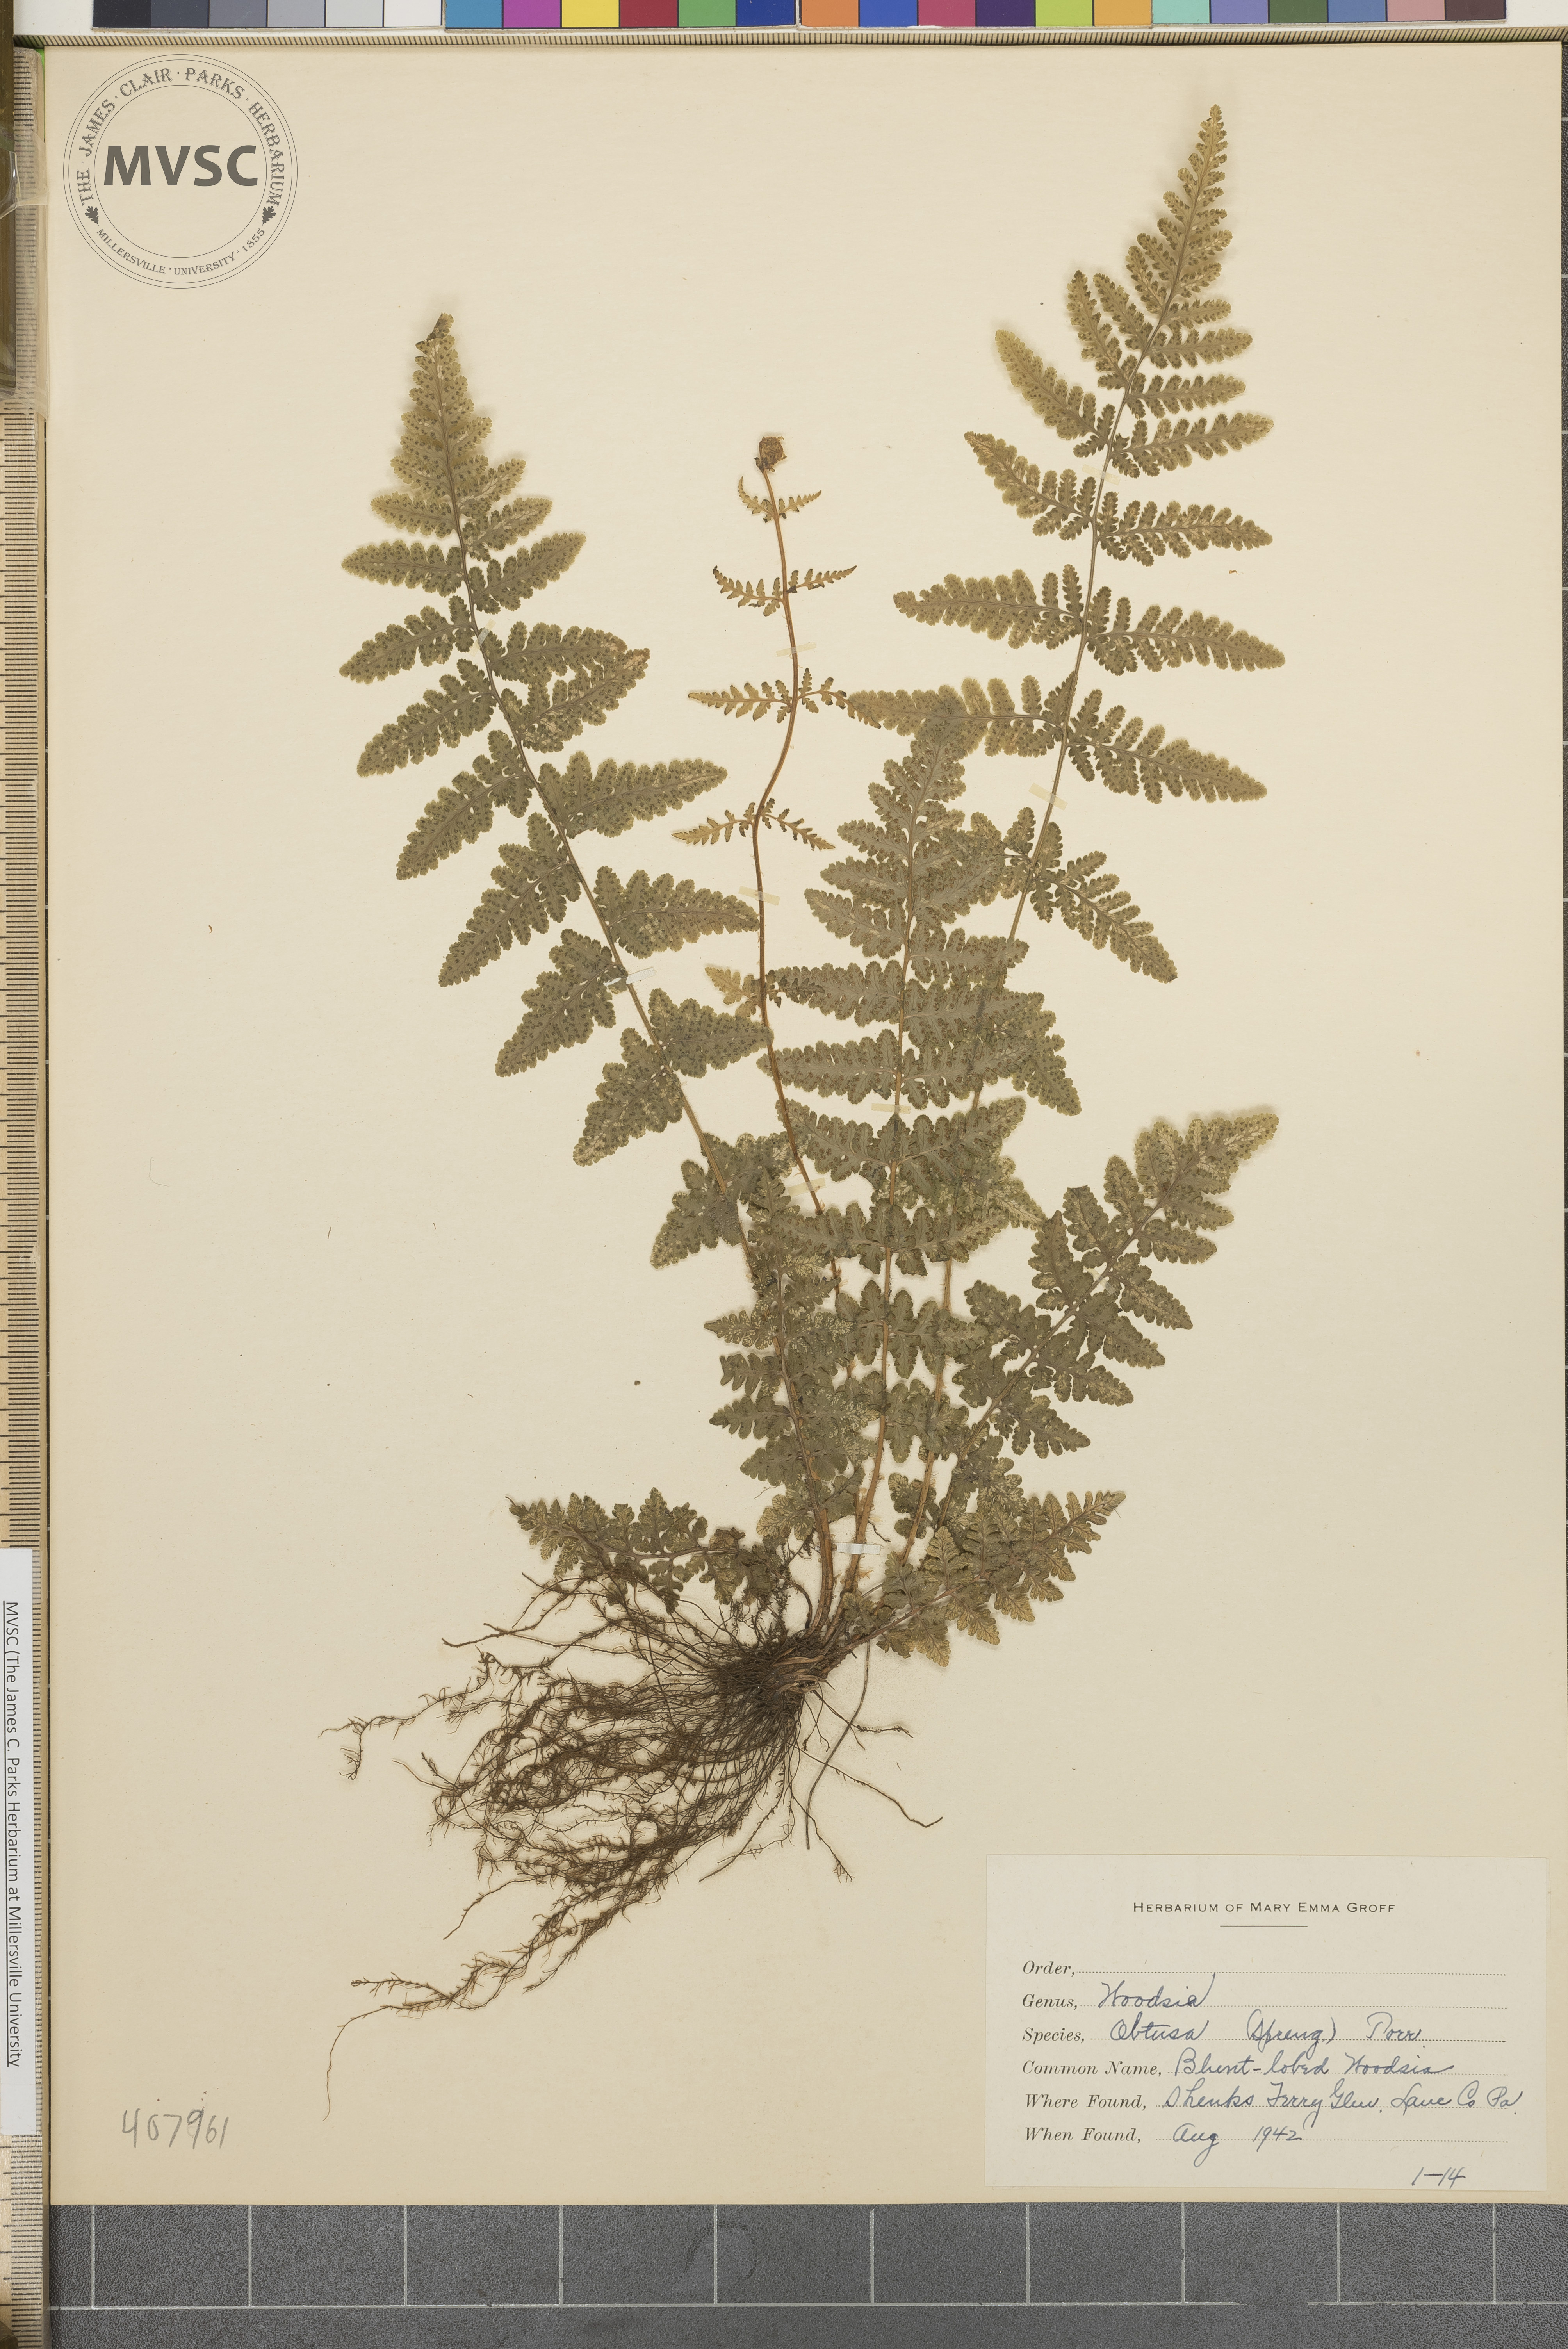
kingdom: Plantae
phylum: Tracheophyta
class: Polypodiopsida
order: Polypodiales
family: Woodsiaceae
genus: Physematium
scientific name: Physematium obtusum
